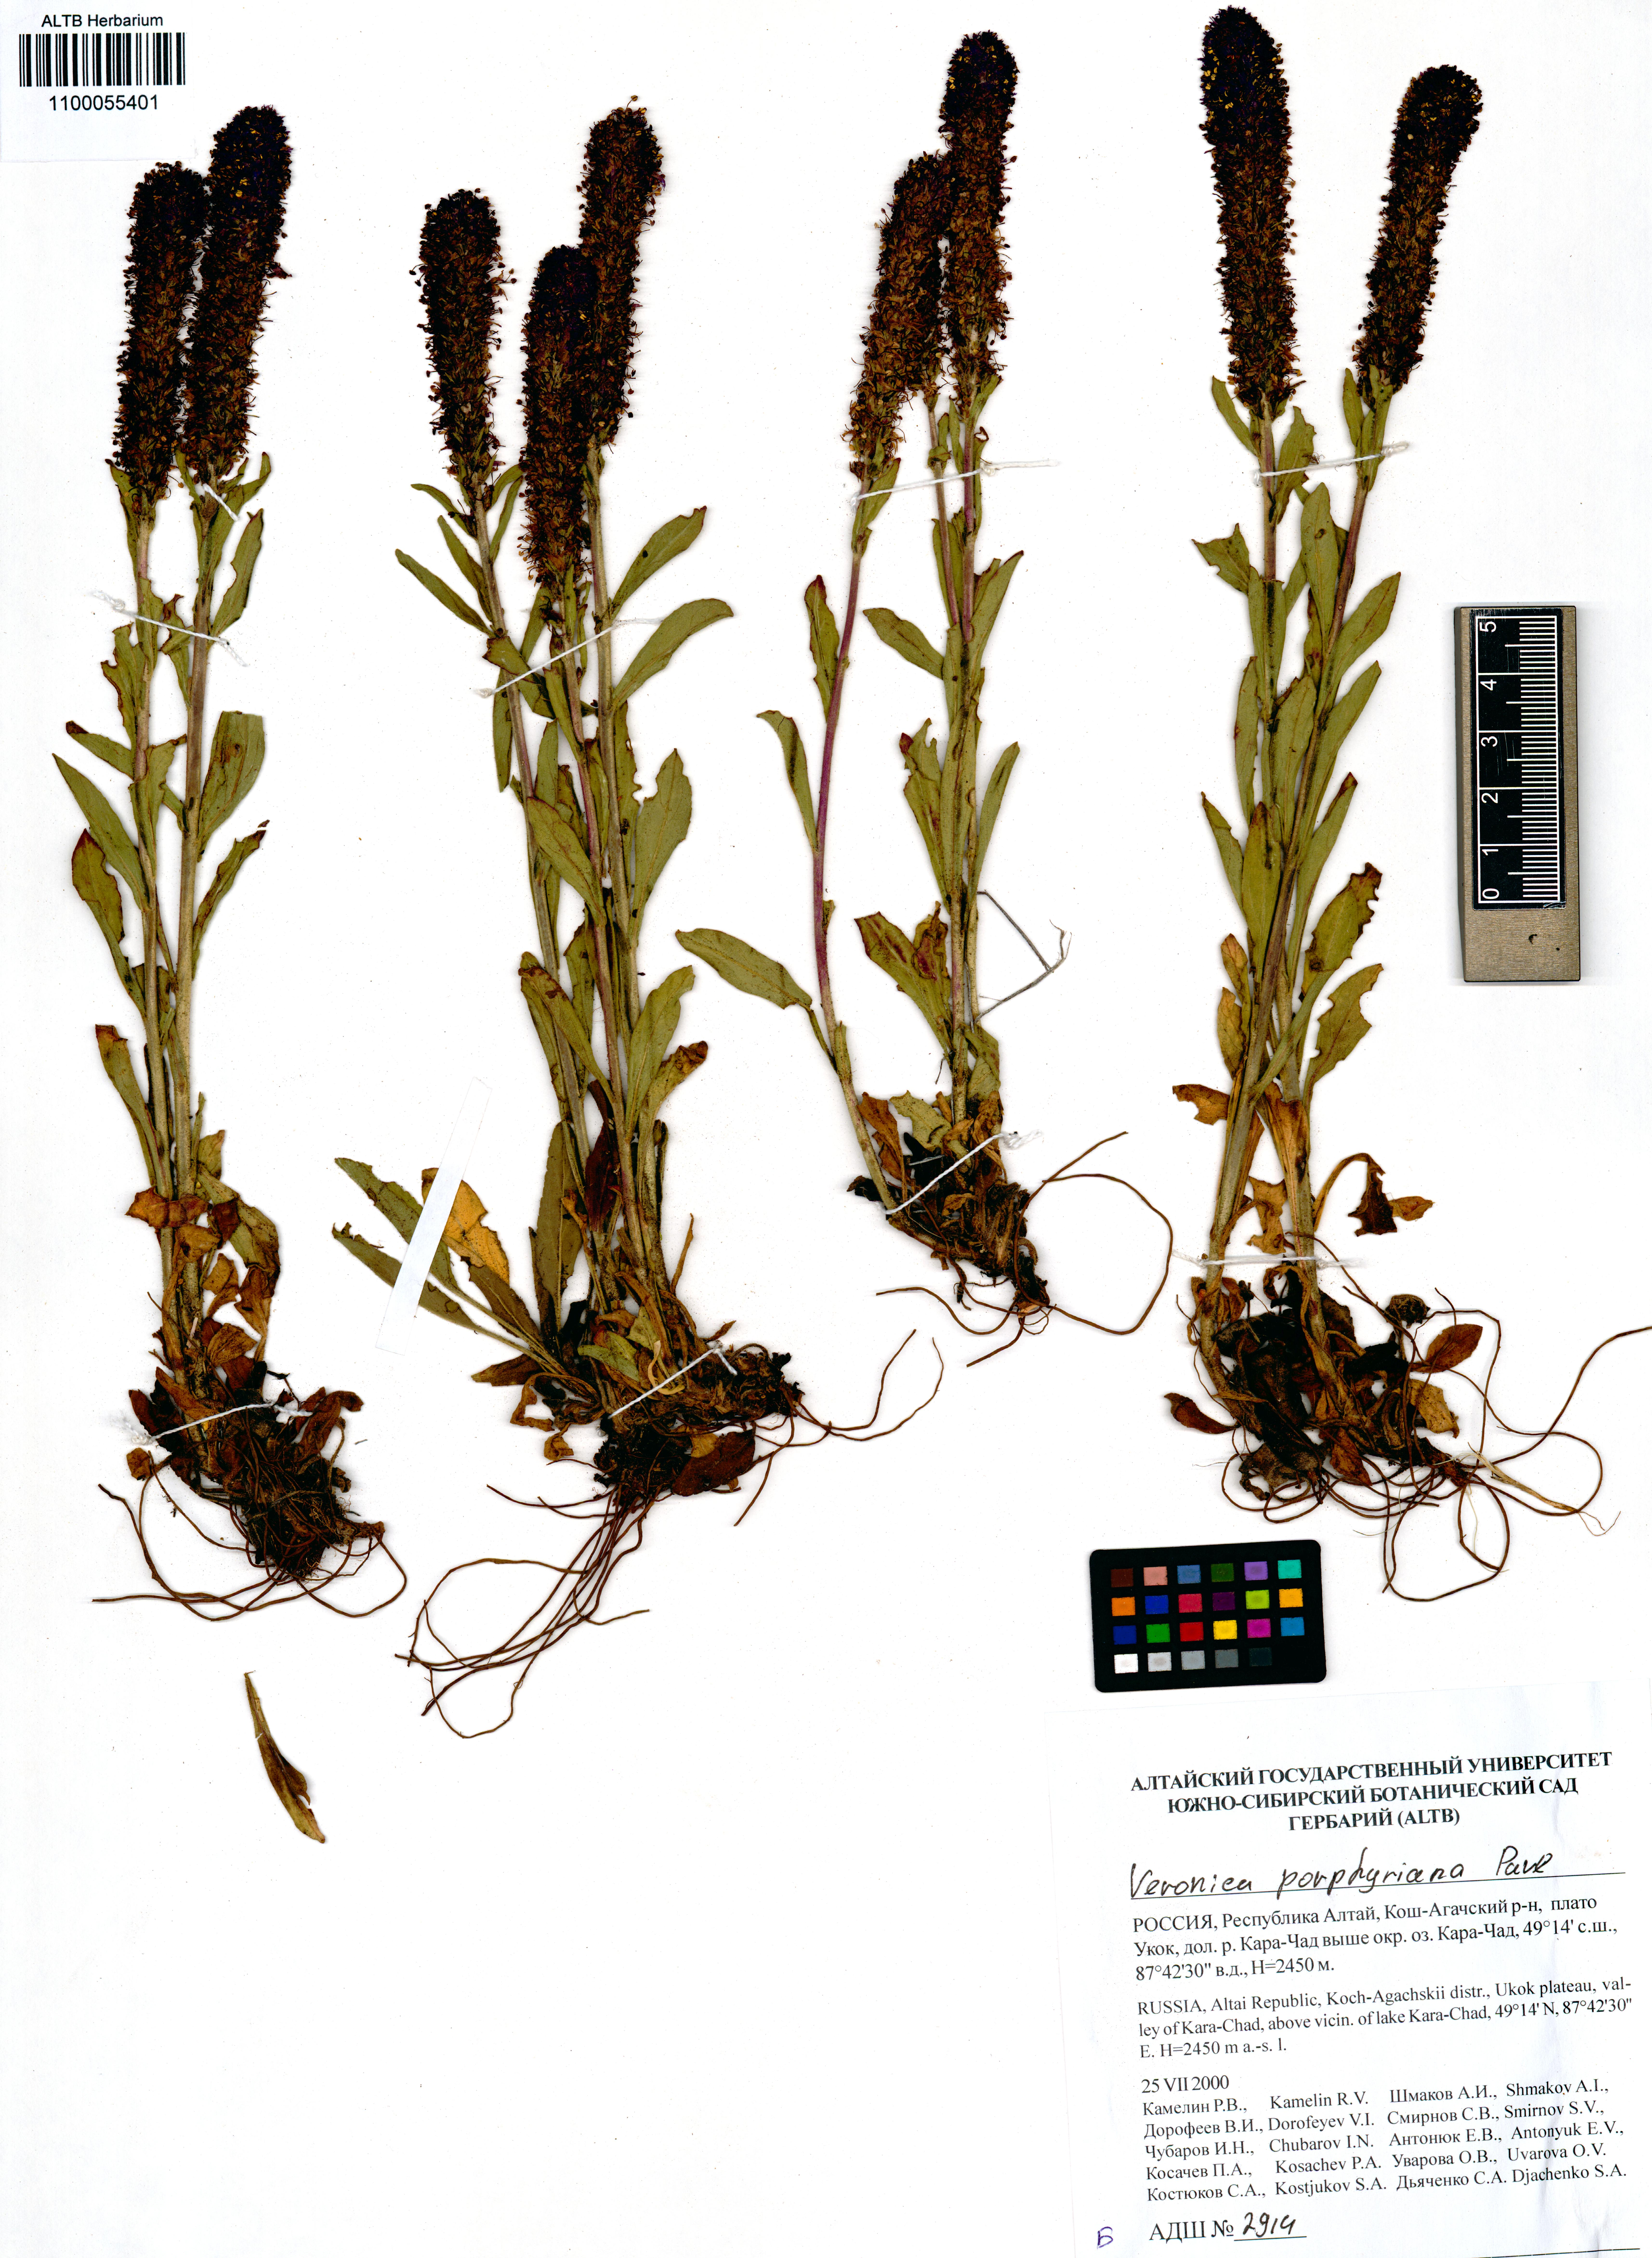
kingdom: Plantae
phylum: Tracheophyta
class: Magnoliopsida
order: Lamiales
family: Plantaginaceae
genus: Veronica
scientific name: Veronica porphyriana
